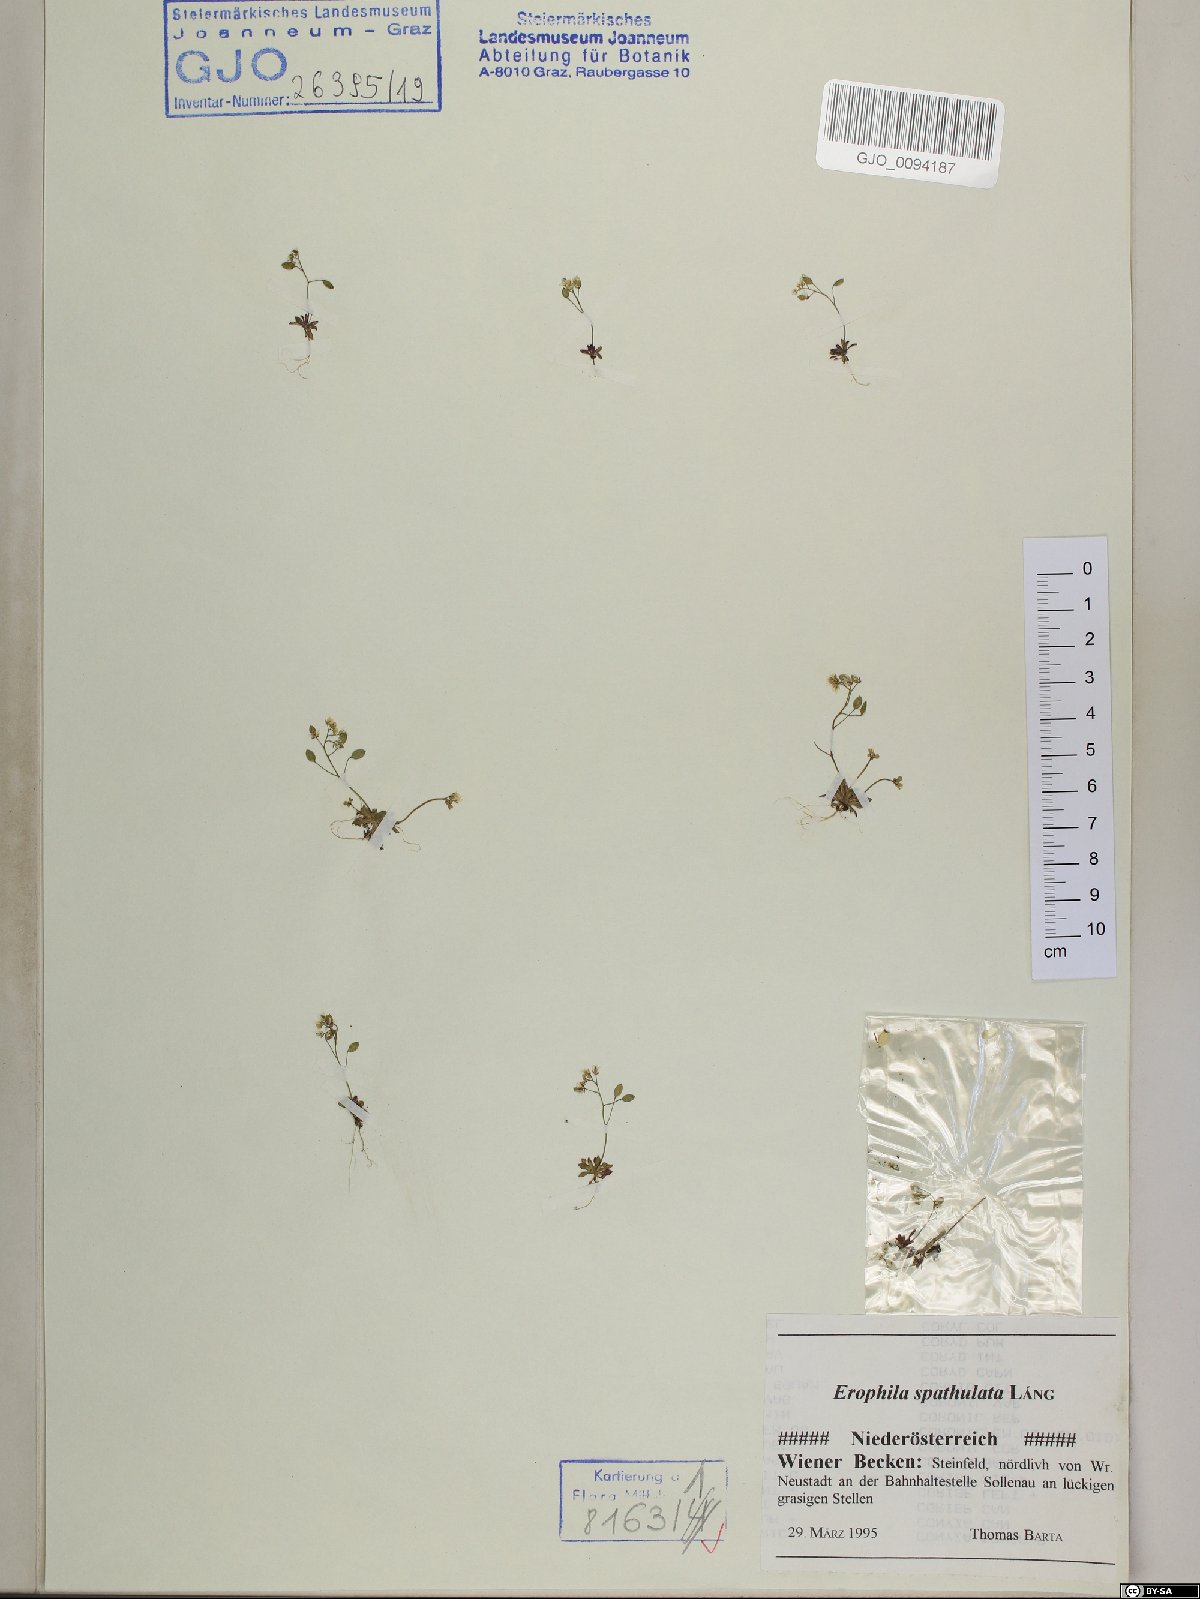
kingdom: Plantae
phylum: Tracheophyta
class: Magnoliopsida
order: Brassicales
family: Brassicaceae
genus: Draba
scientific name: Draba verna
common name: Spring draba
